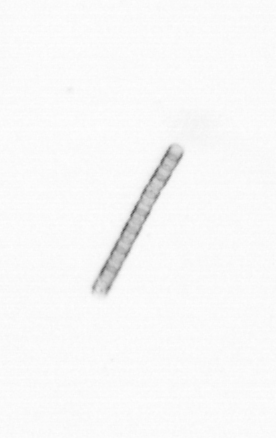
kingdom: Chromista
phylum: Ochrophyta
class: Bacillariophyceae
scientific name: Bacillariophyceae
